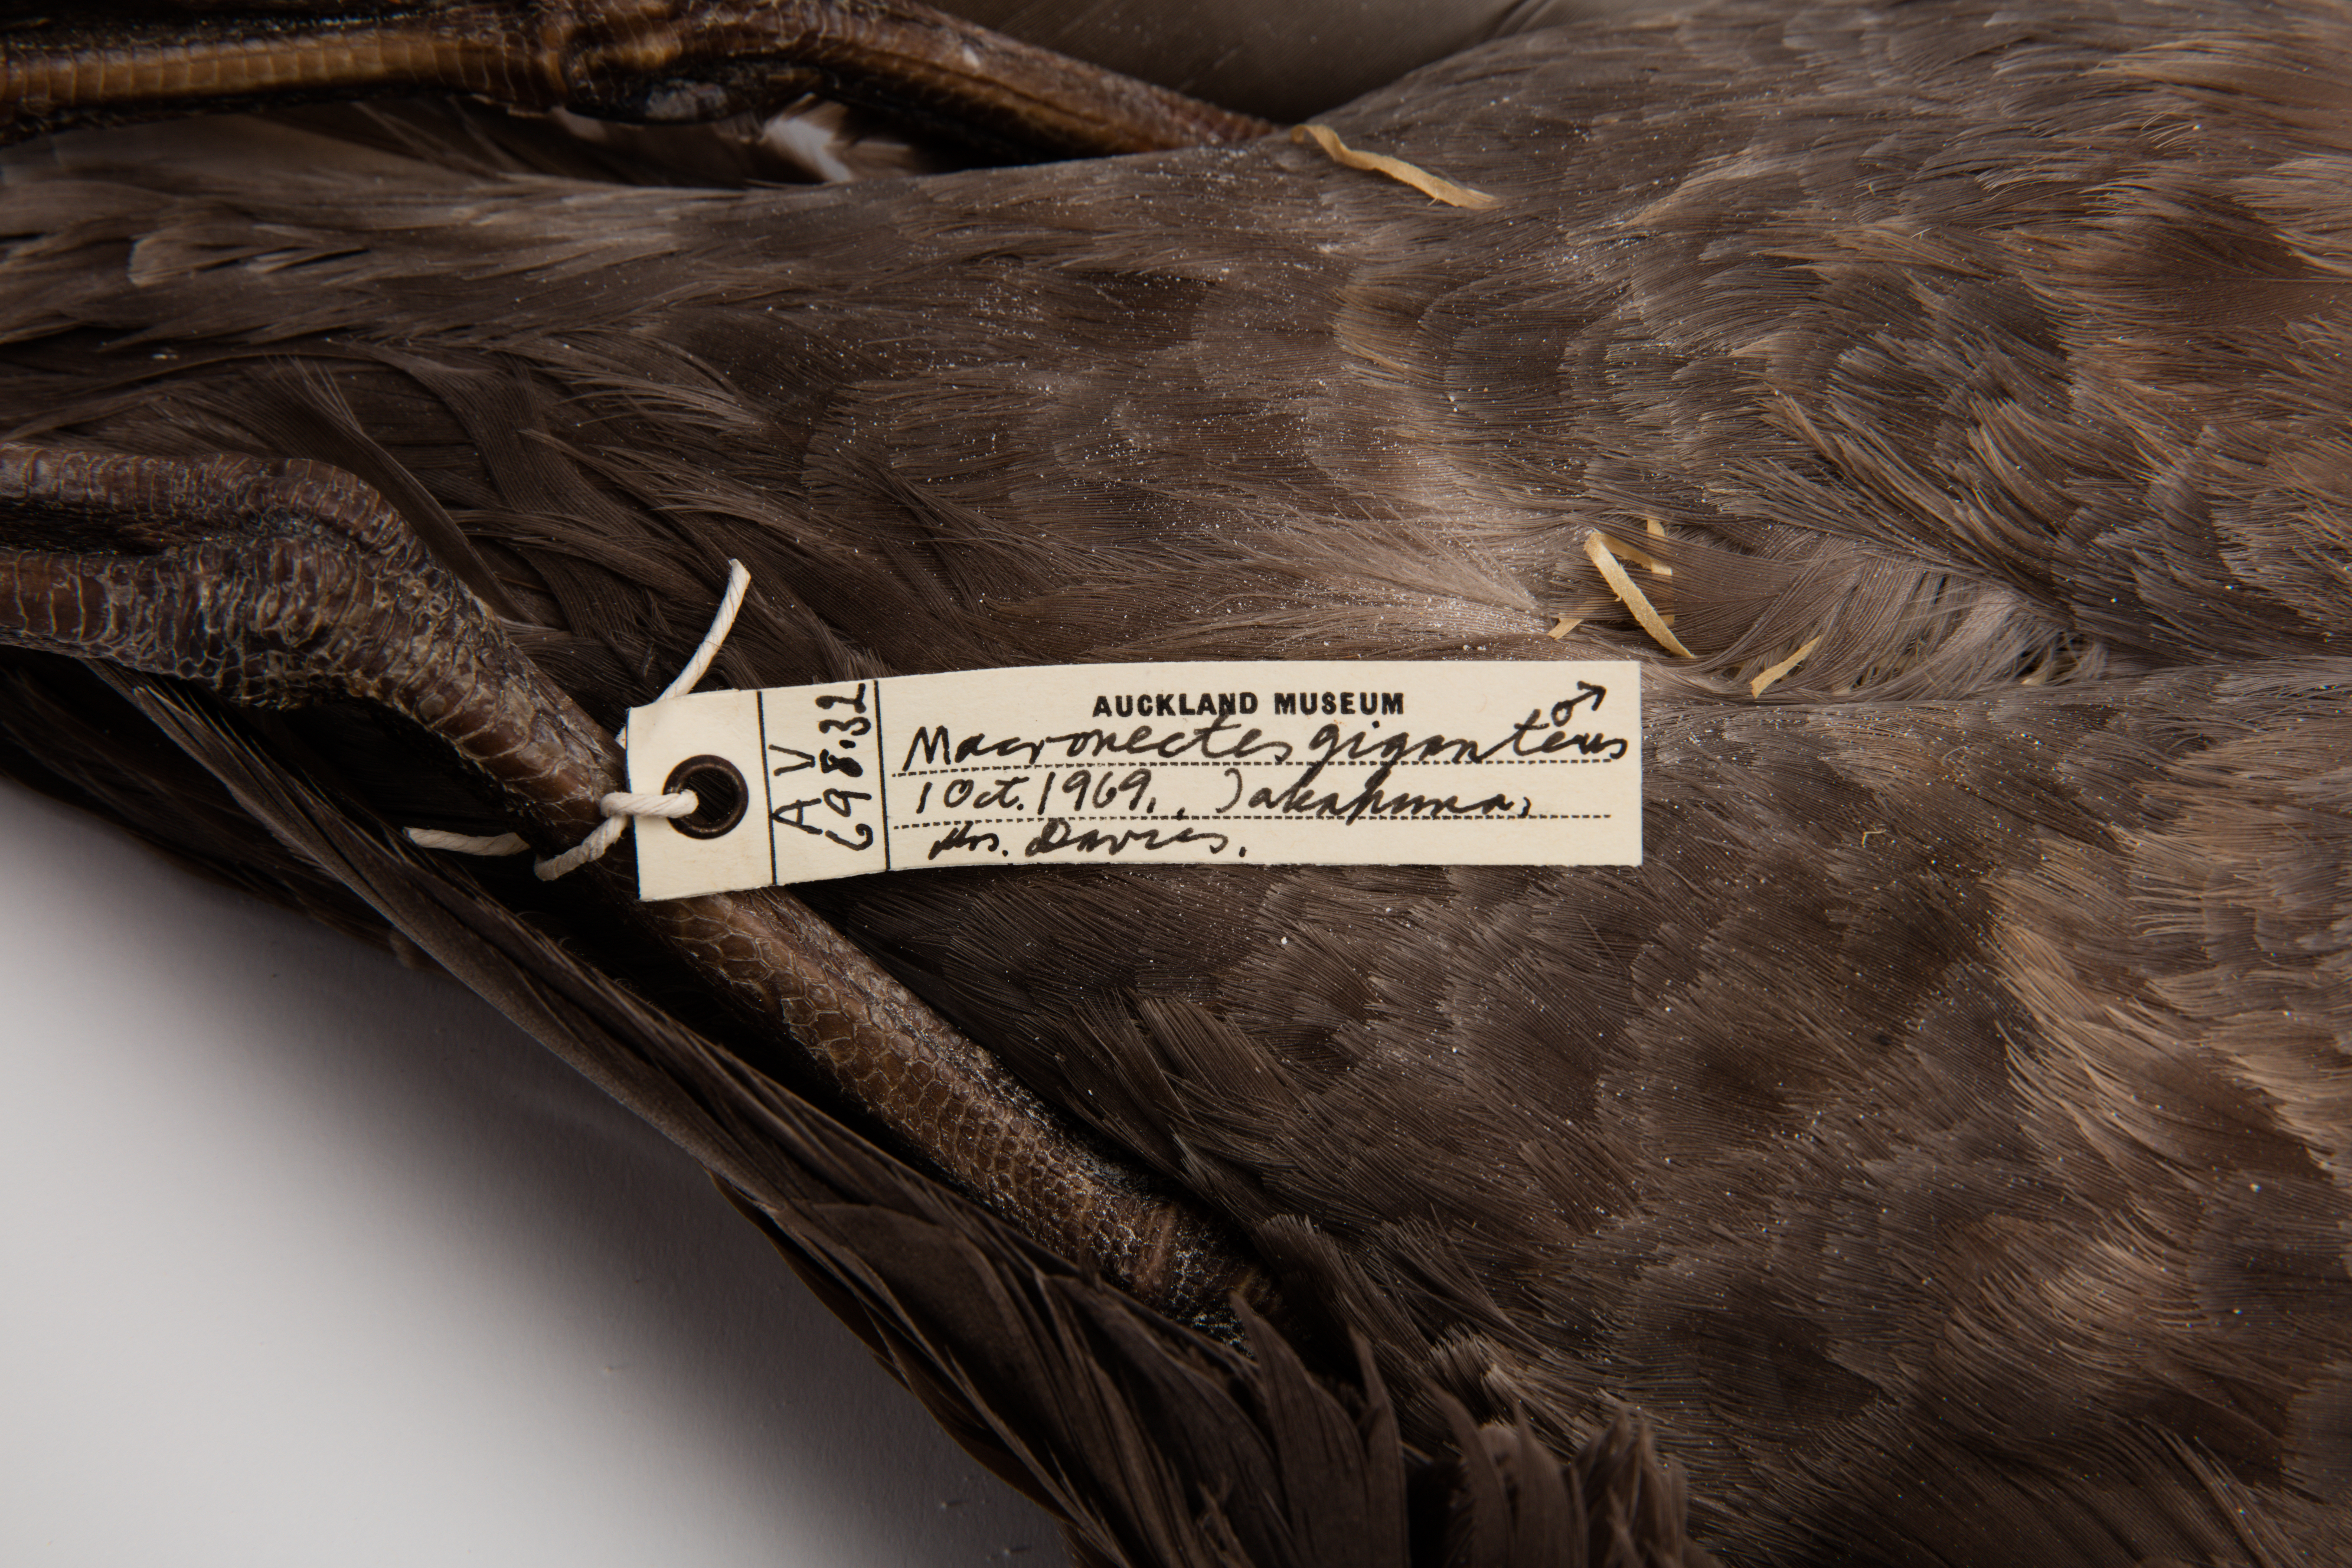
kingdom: Animalia
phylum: Chordata
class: Aves
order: Procellariiformes
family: Procellariidae
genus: Macronectes
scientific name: Macronectes giganteus
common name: Southern giant petrel
